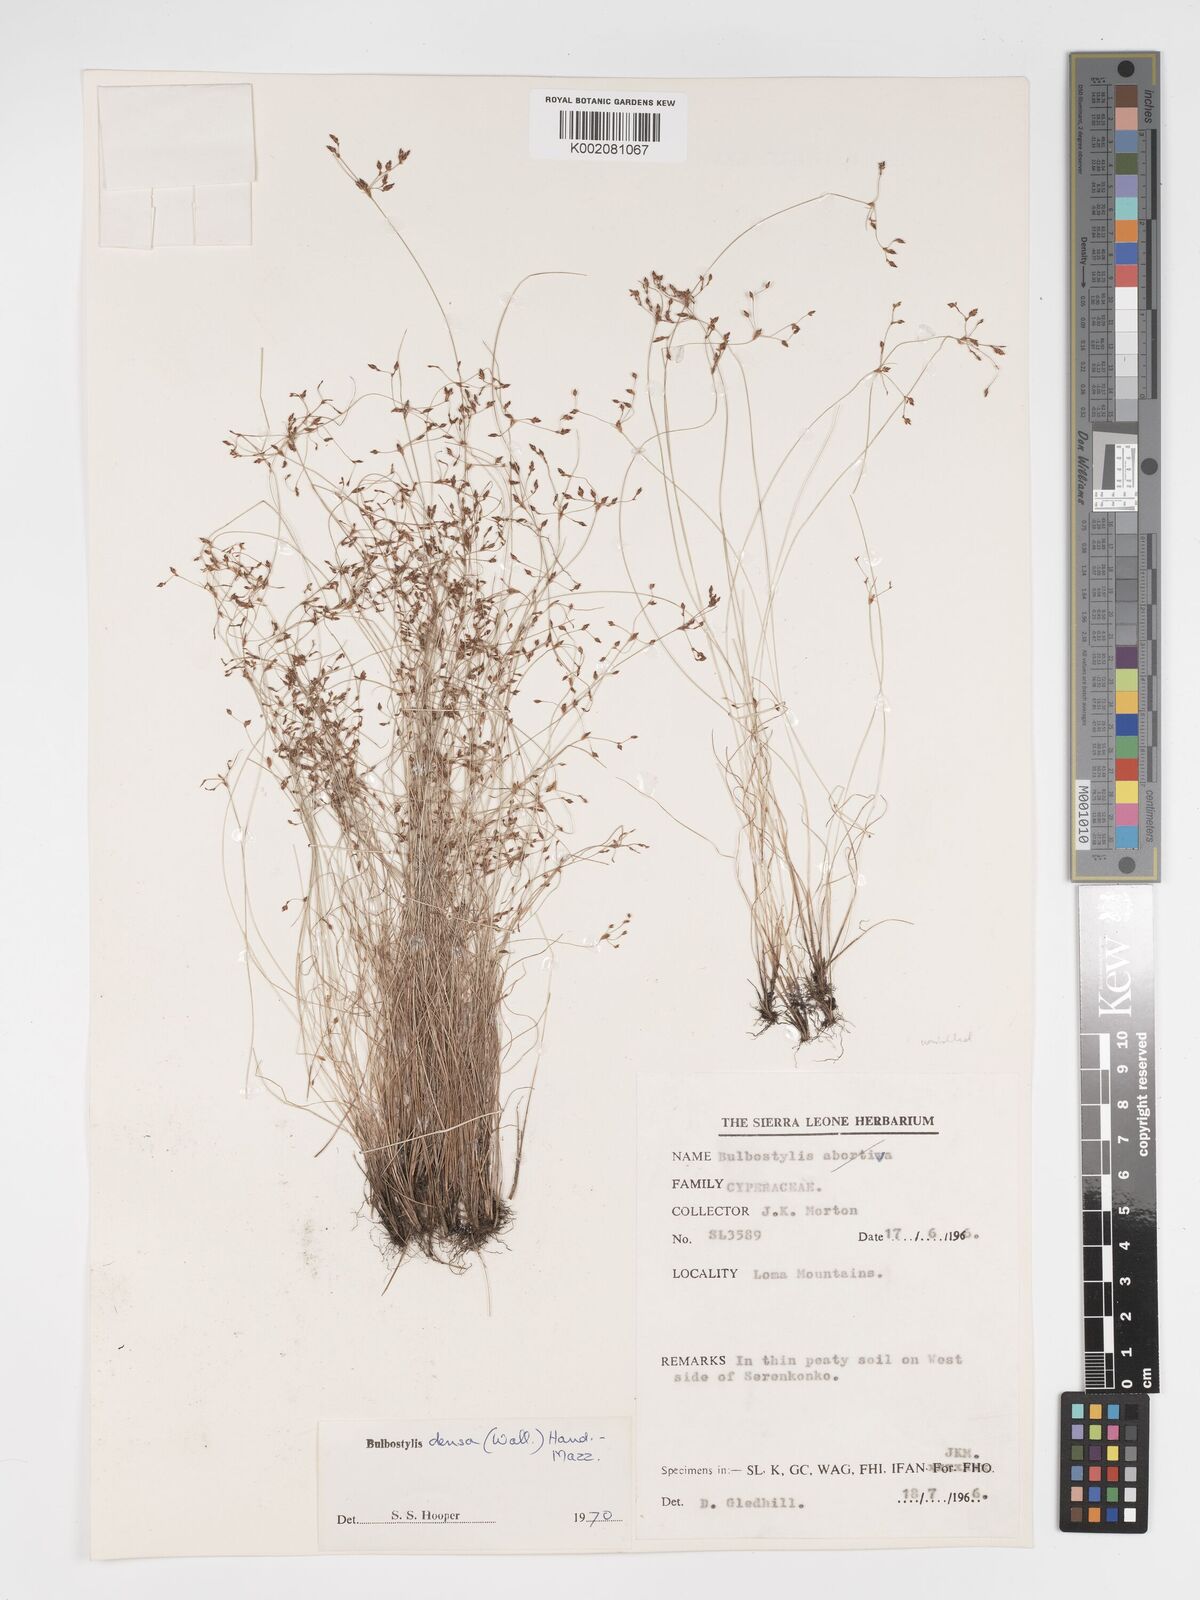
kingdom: Plantae
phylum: Tracheophyta
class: Liliopsida
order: Poales
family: Cyperaceae
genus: Bulbostylis
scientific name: Bulbostylis densa
